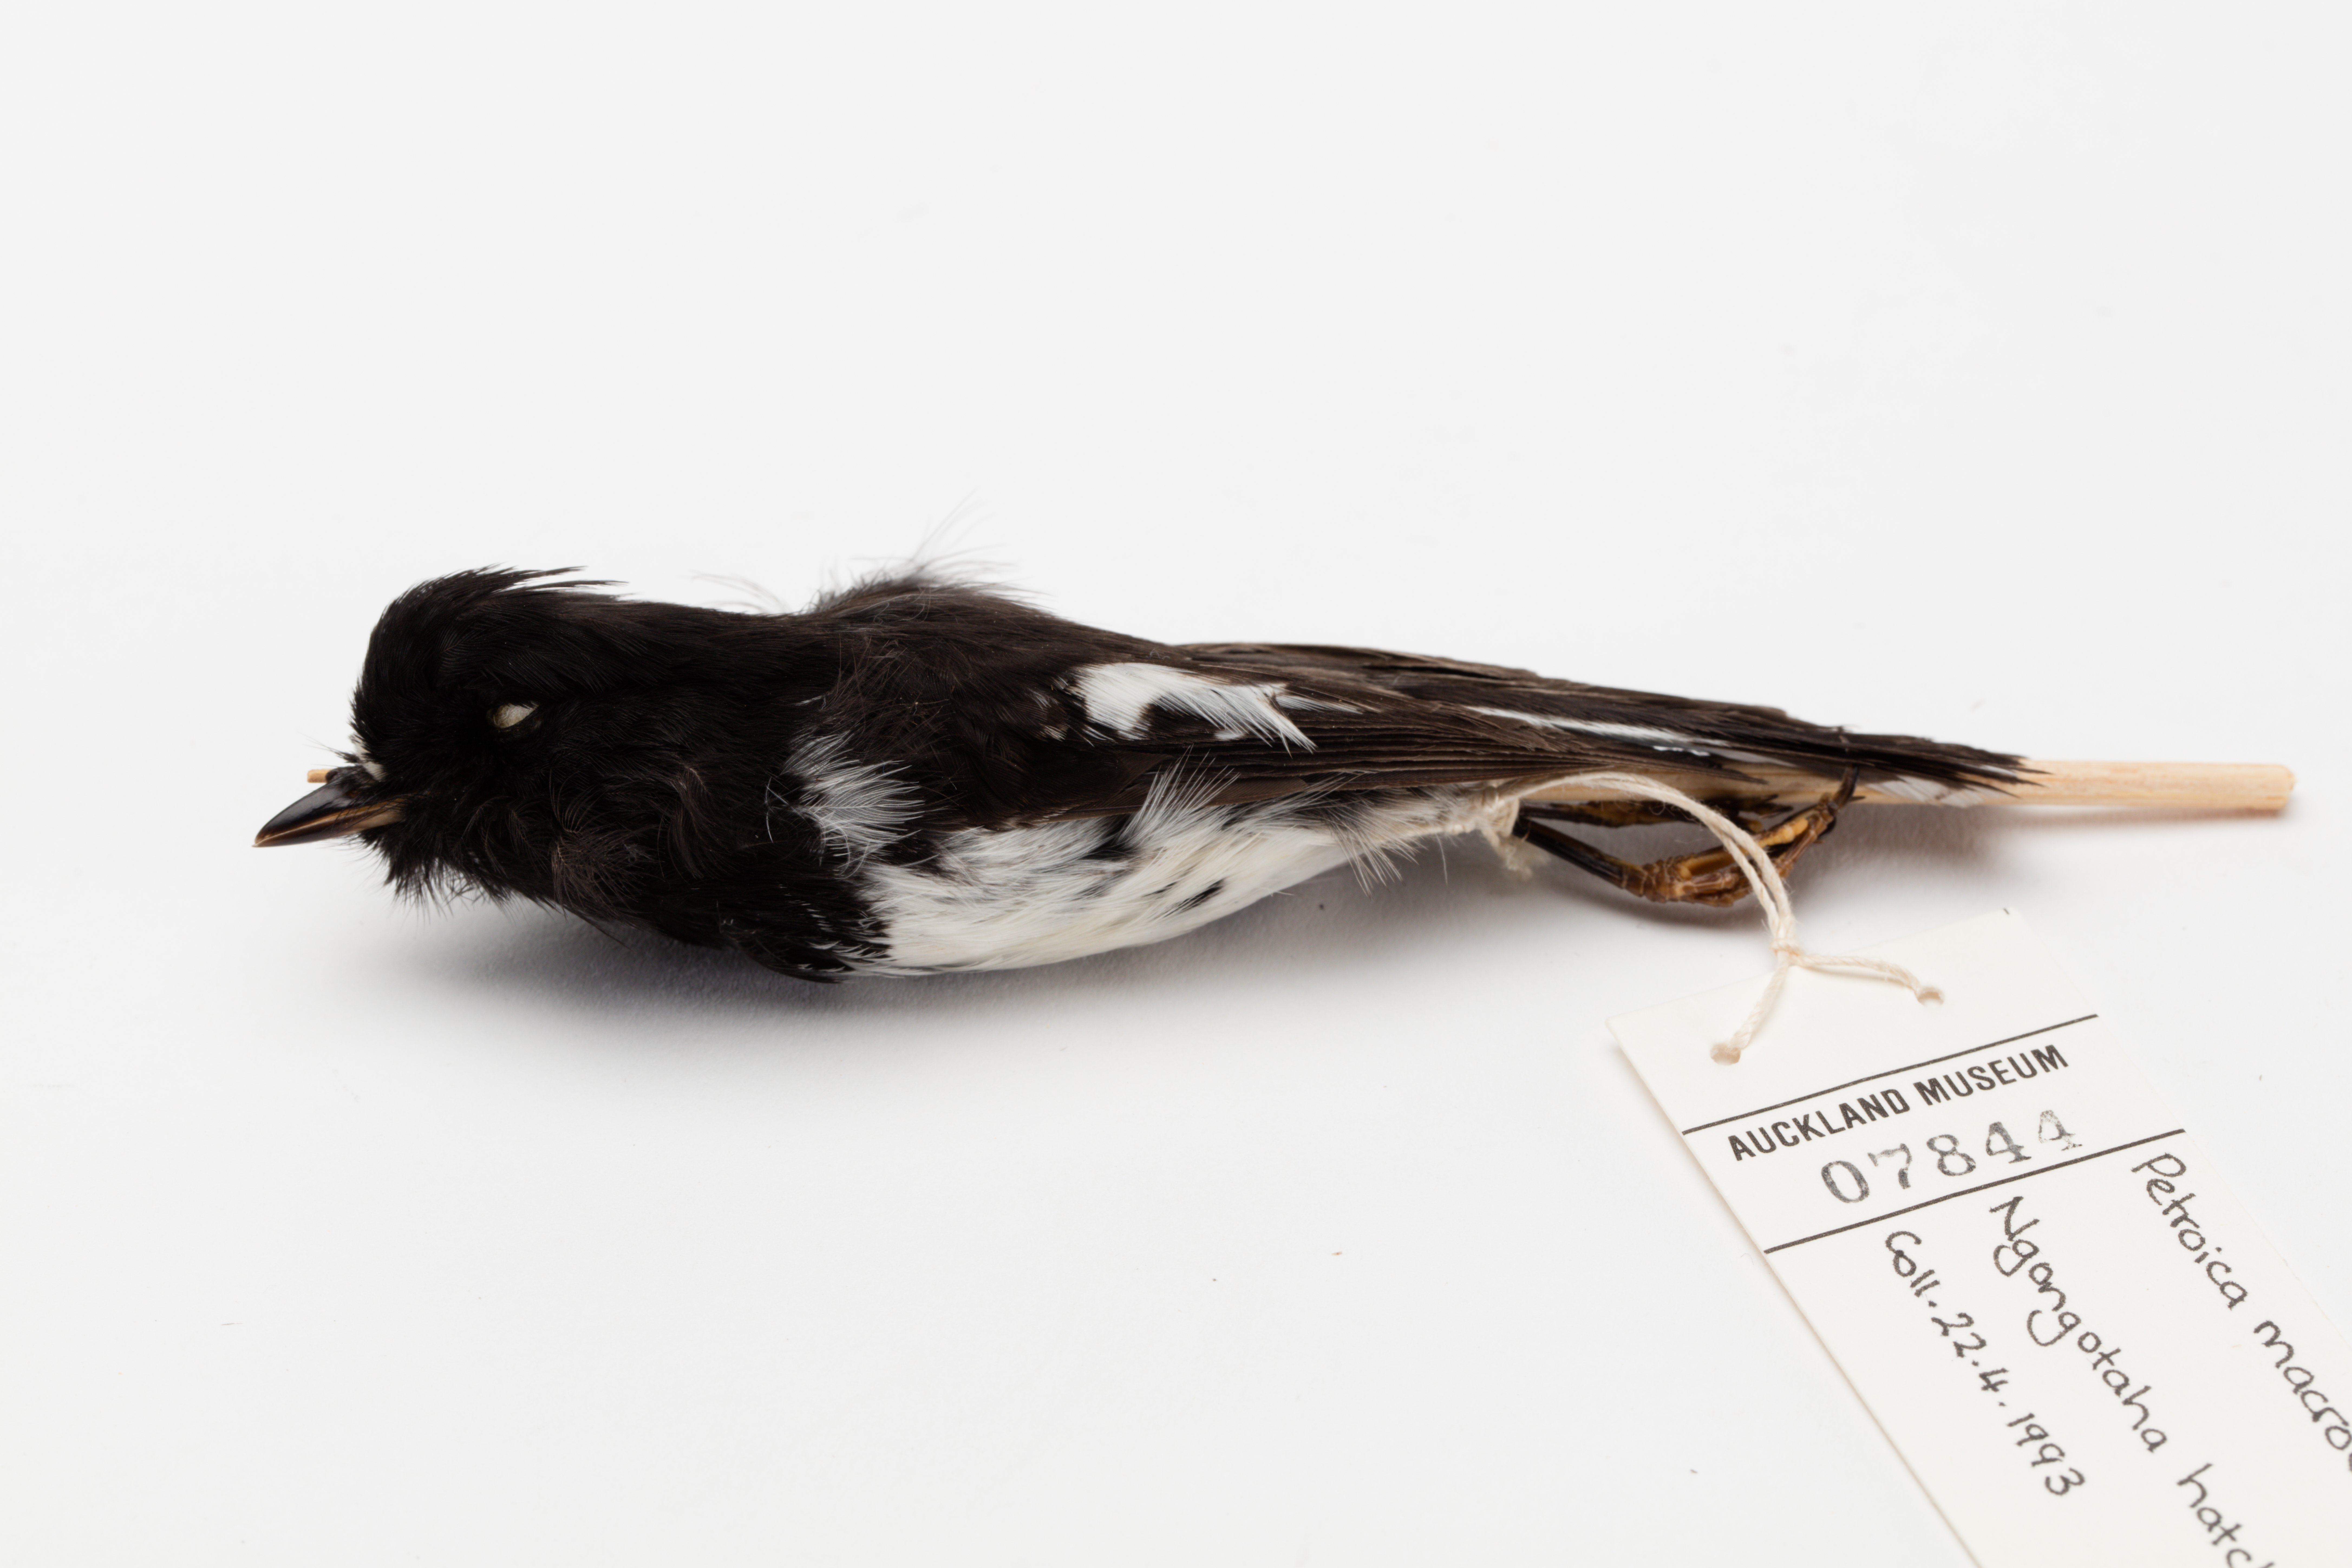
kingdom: Animalia
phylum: Chordata
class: Aves
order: Passeriformes
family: Petroicidae
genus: Petroica
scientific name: Petroica macrocephala
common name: Tomtit
